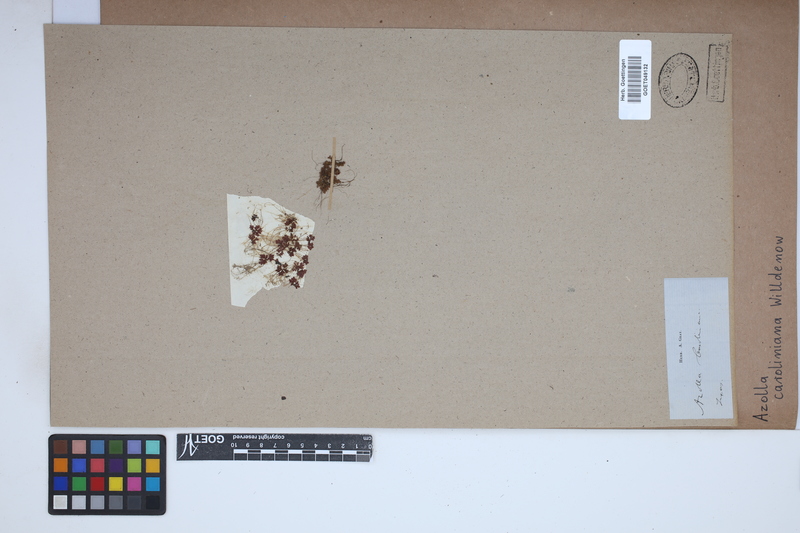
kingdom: Plantae
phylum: Tracheophyta
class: Polypodiopsida
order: Salviniales
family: Salviniaceae
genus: Azolla
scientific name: Azolla caroliniana
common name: Carolina mosquitofern
